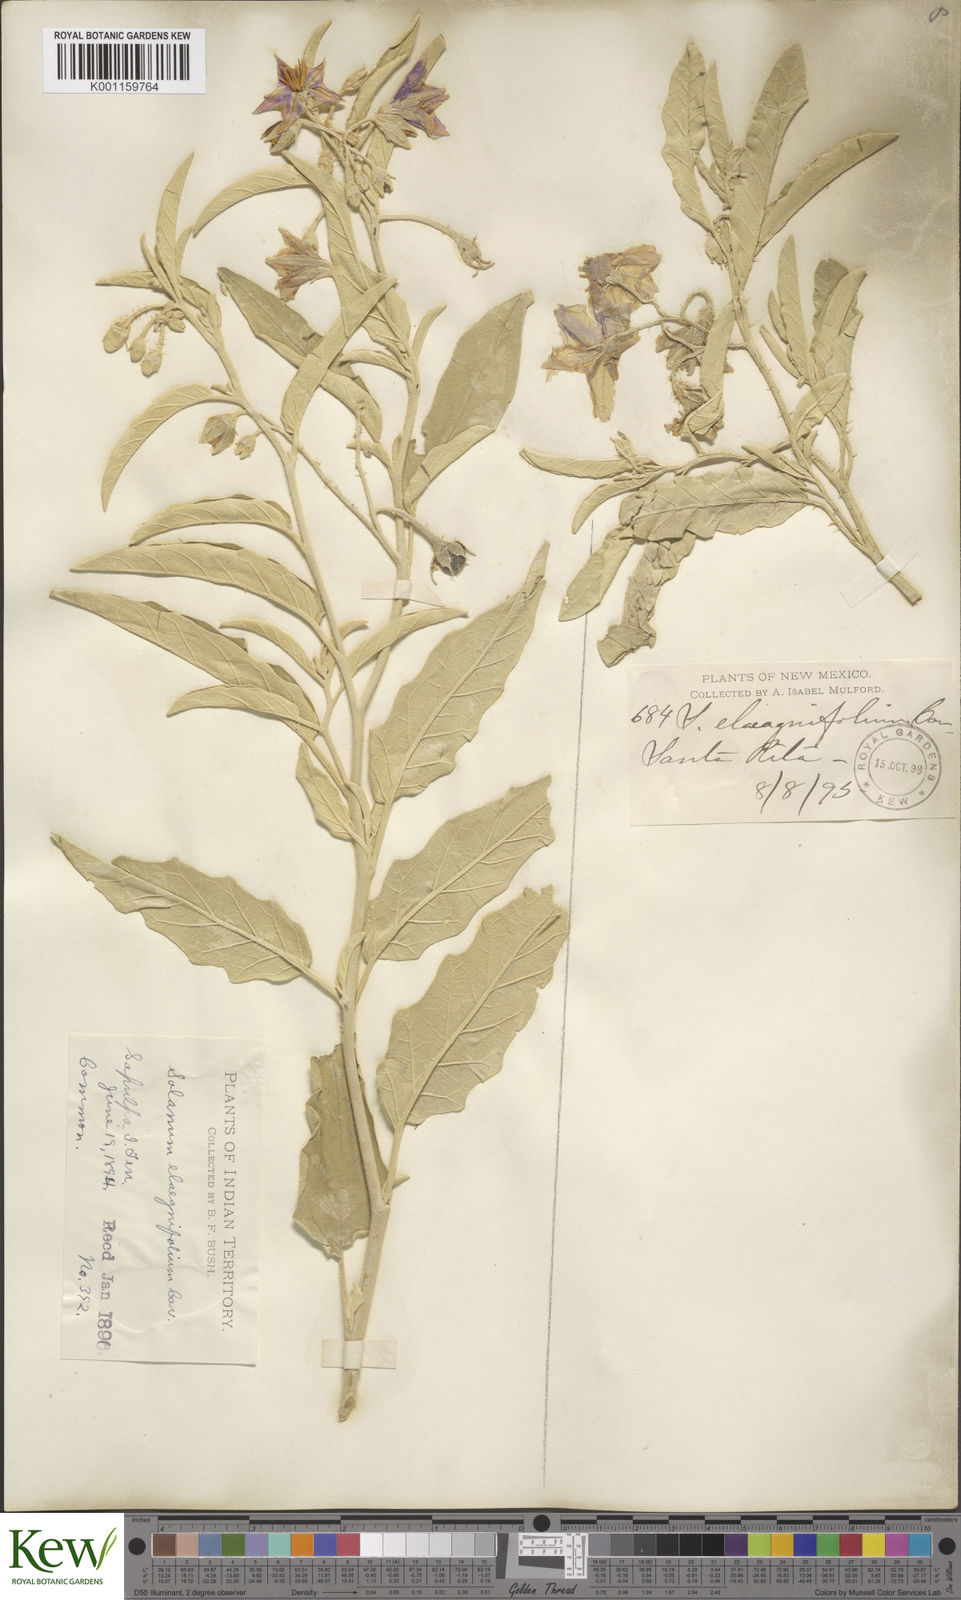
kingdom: Plantae
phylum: Tracheophyta
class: Magnoliopsida
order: Solanales
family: Solanaceae
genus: Solanum
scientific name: Solanum
